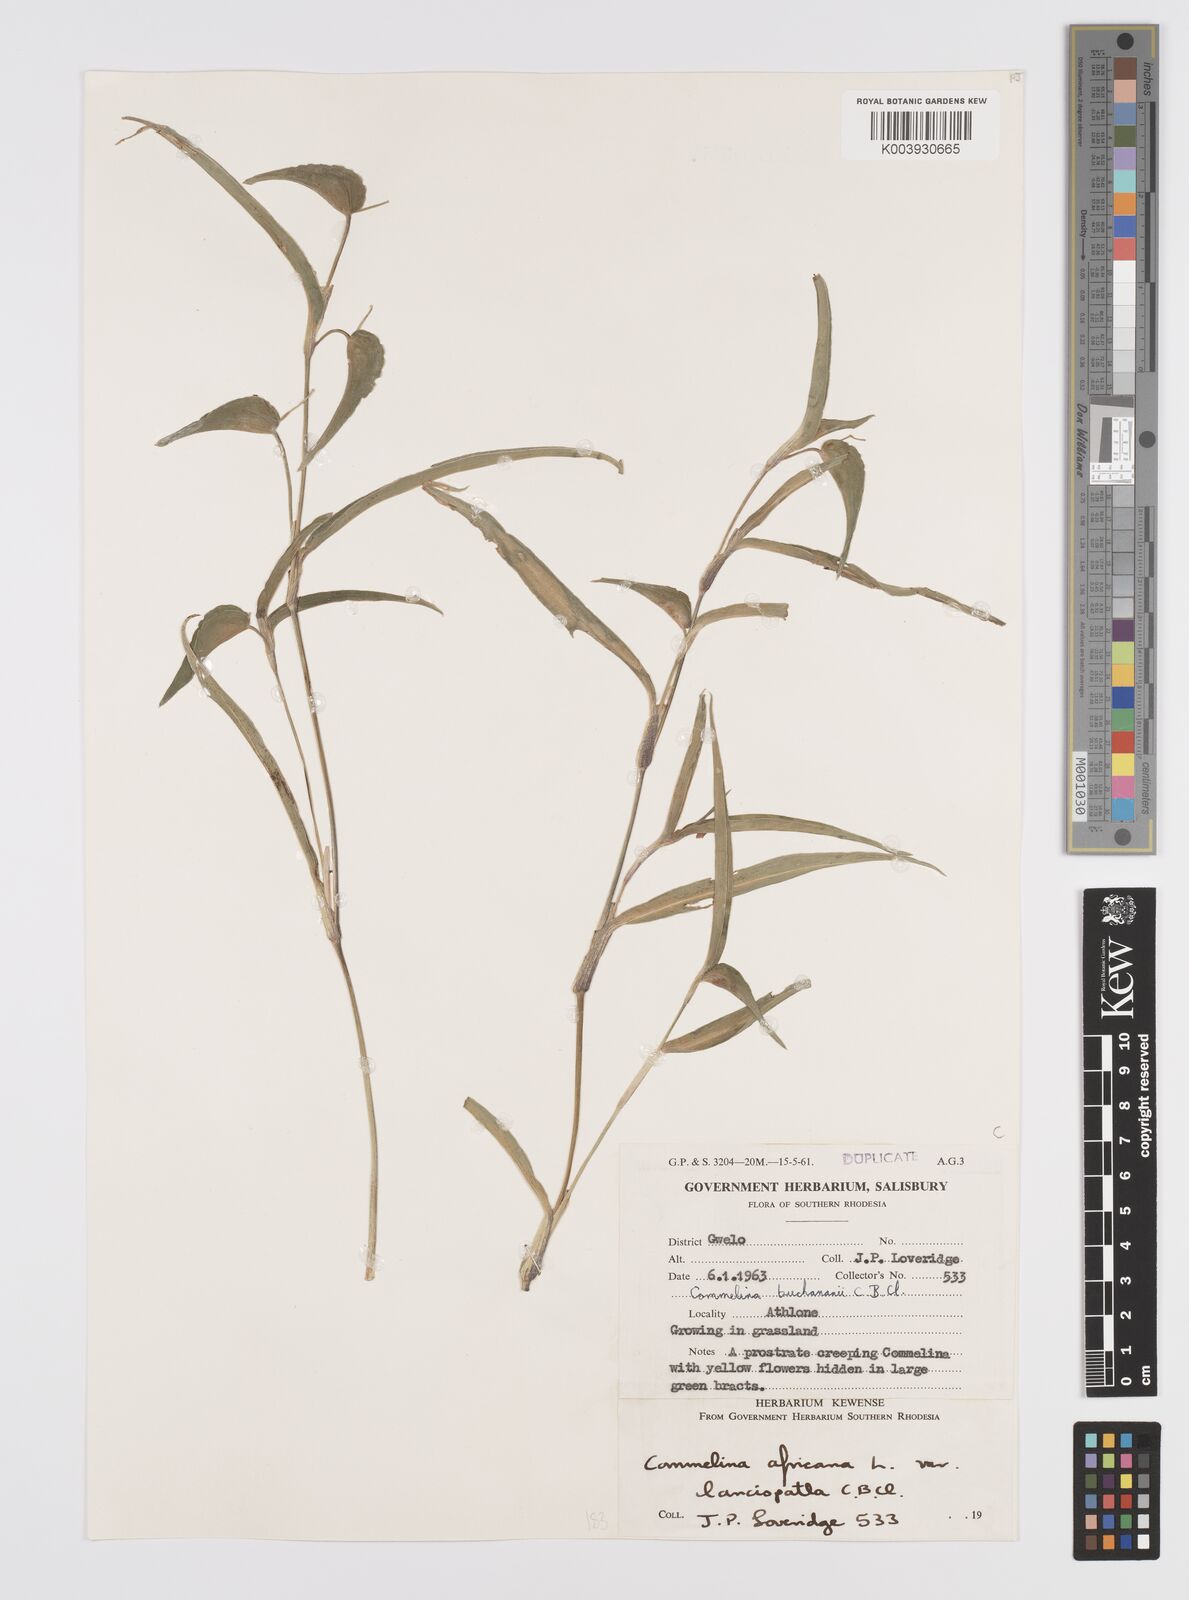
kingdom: Plantae
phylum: Tracheophyta
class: Liliopsida
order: Commelinales
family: Commelinaceae
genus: Commelina
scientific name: Commelina africana
